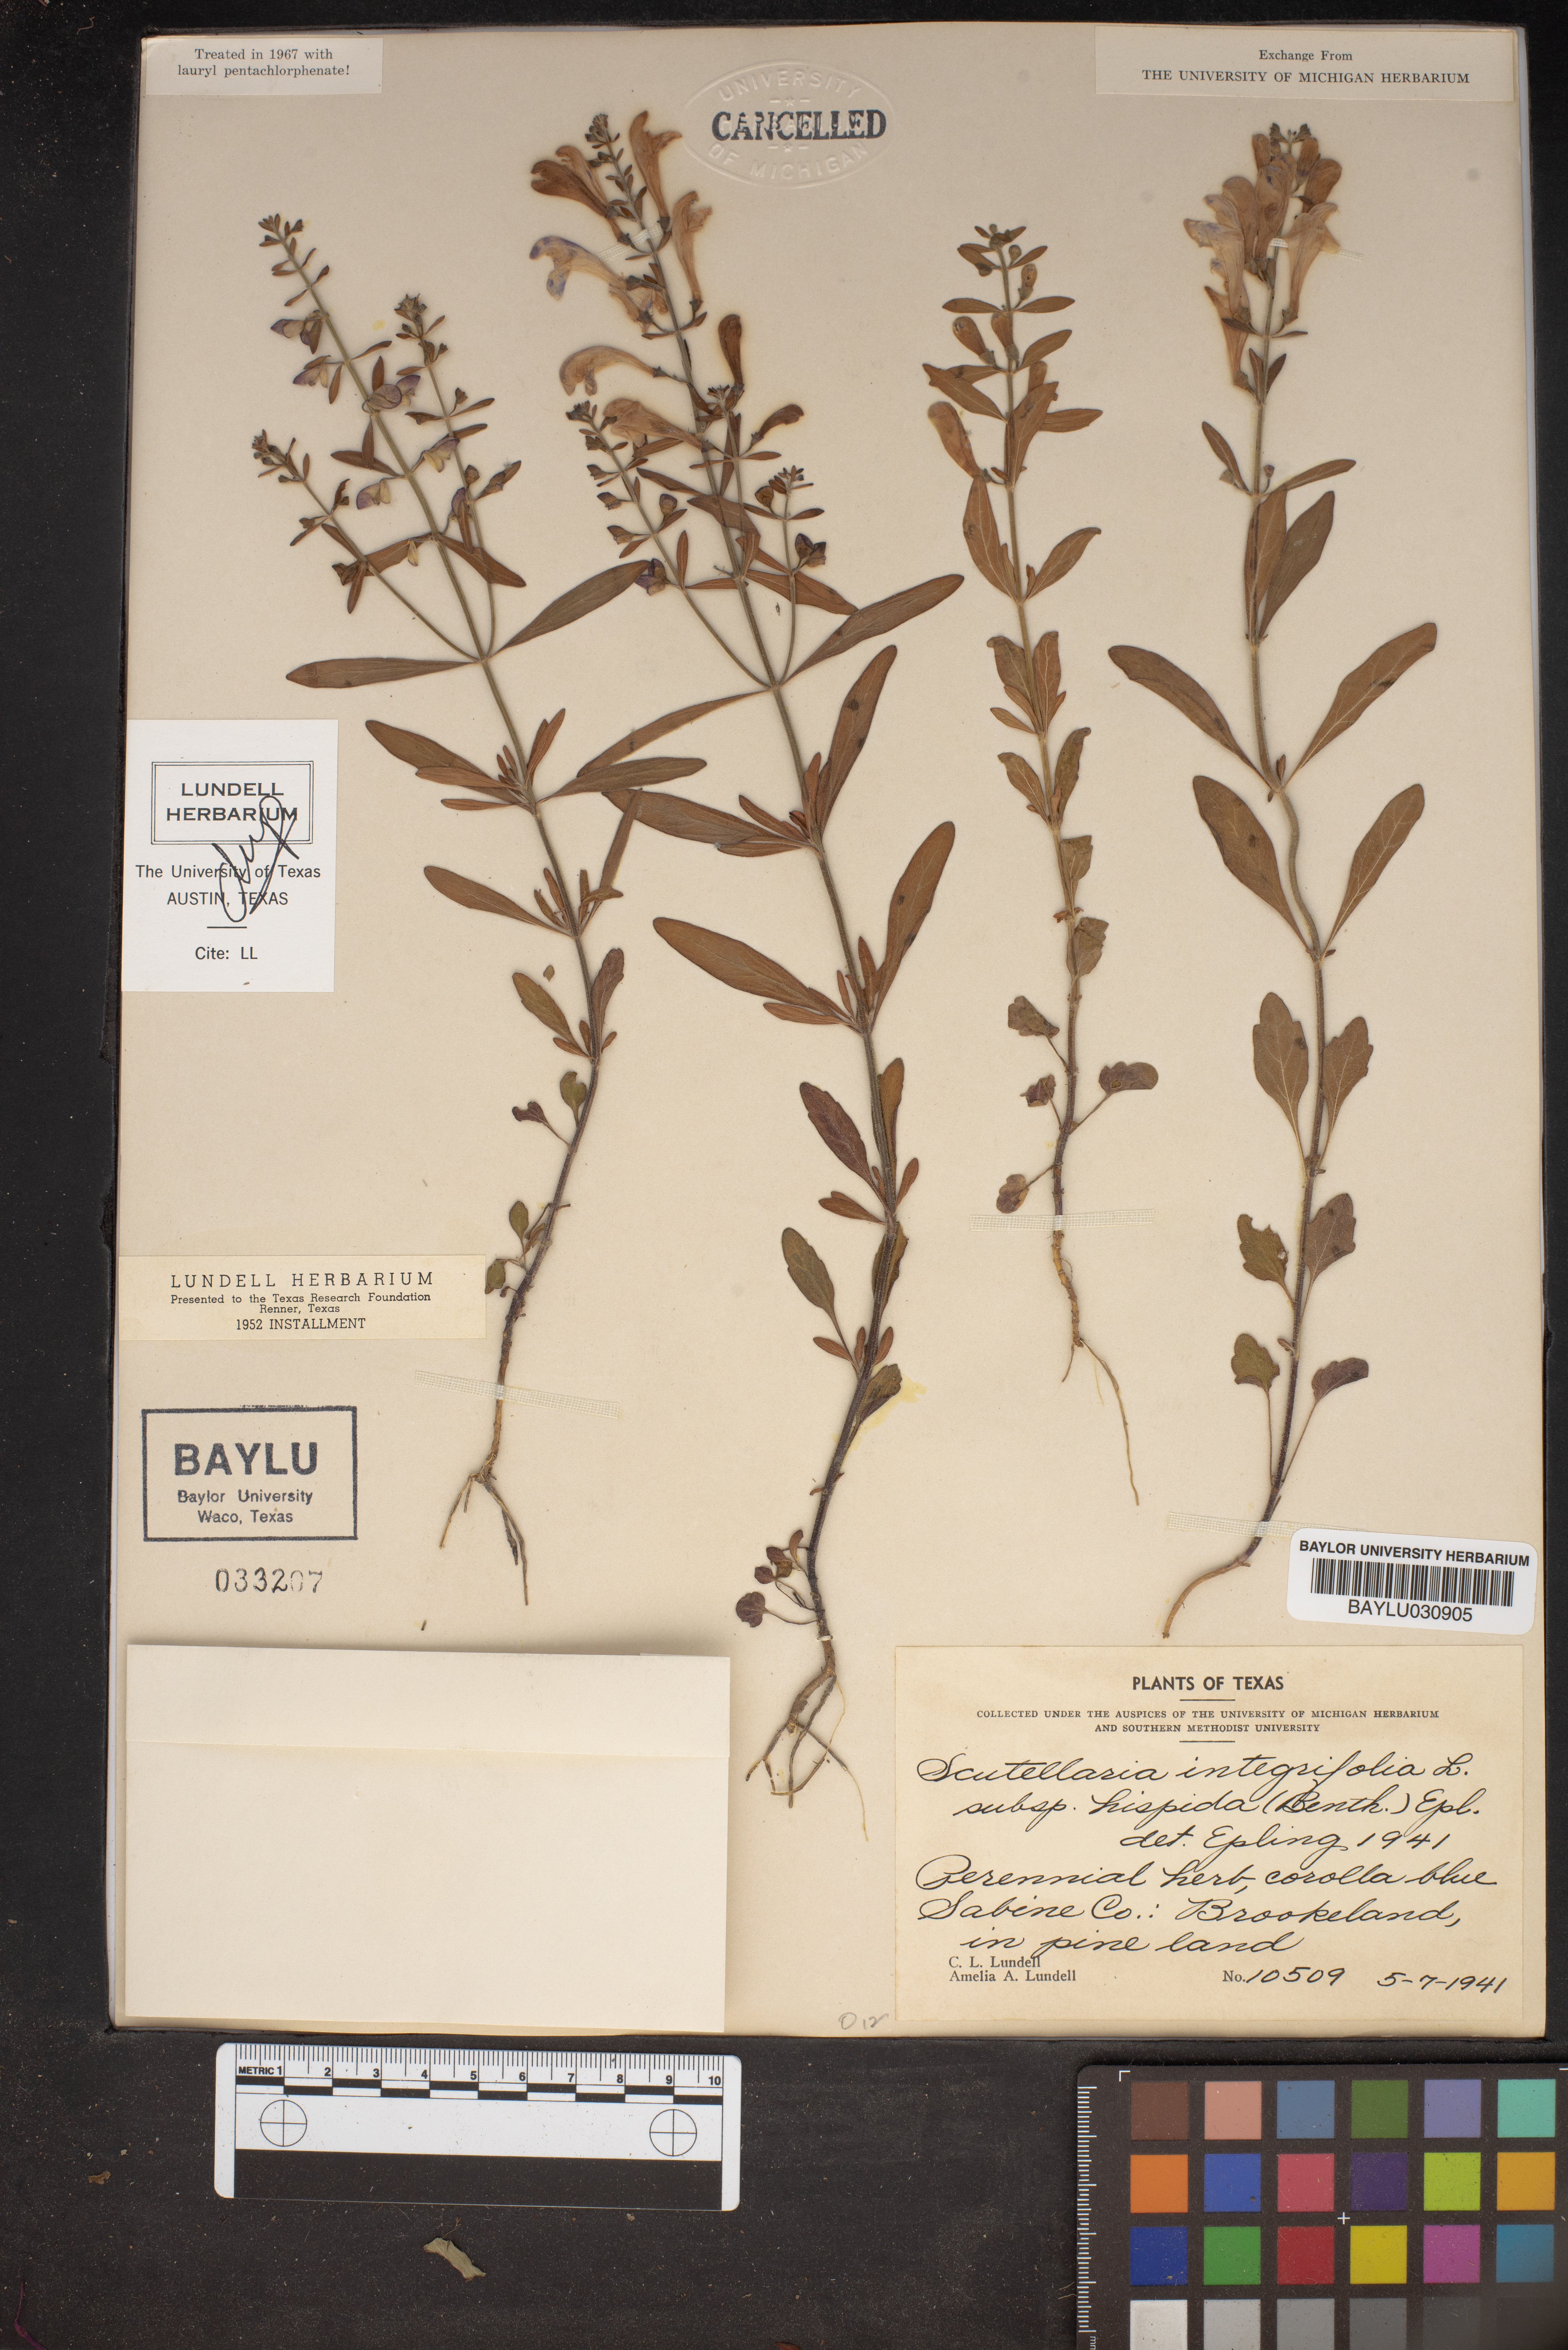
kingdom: Plantae
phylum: Tracheophyta
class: Magnoliopsida
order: Lamiales
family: Lamiaceae
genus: Scutellaria
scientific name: Scutellaria integrifolia
